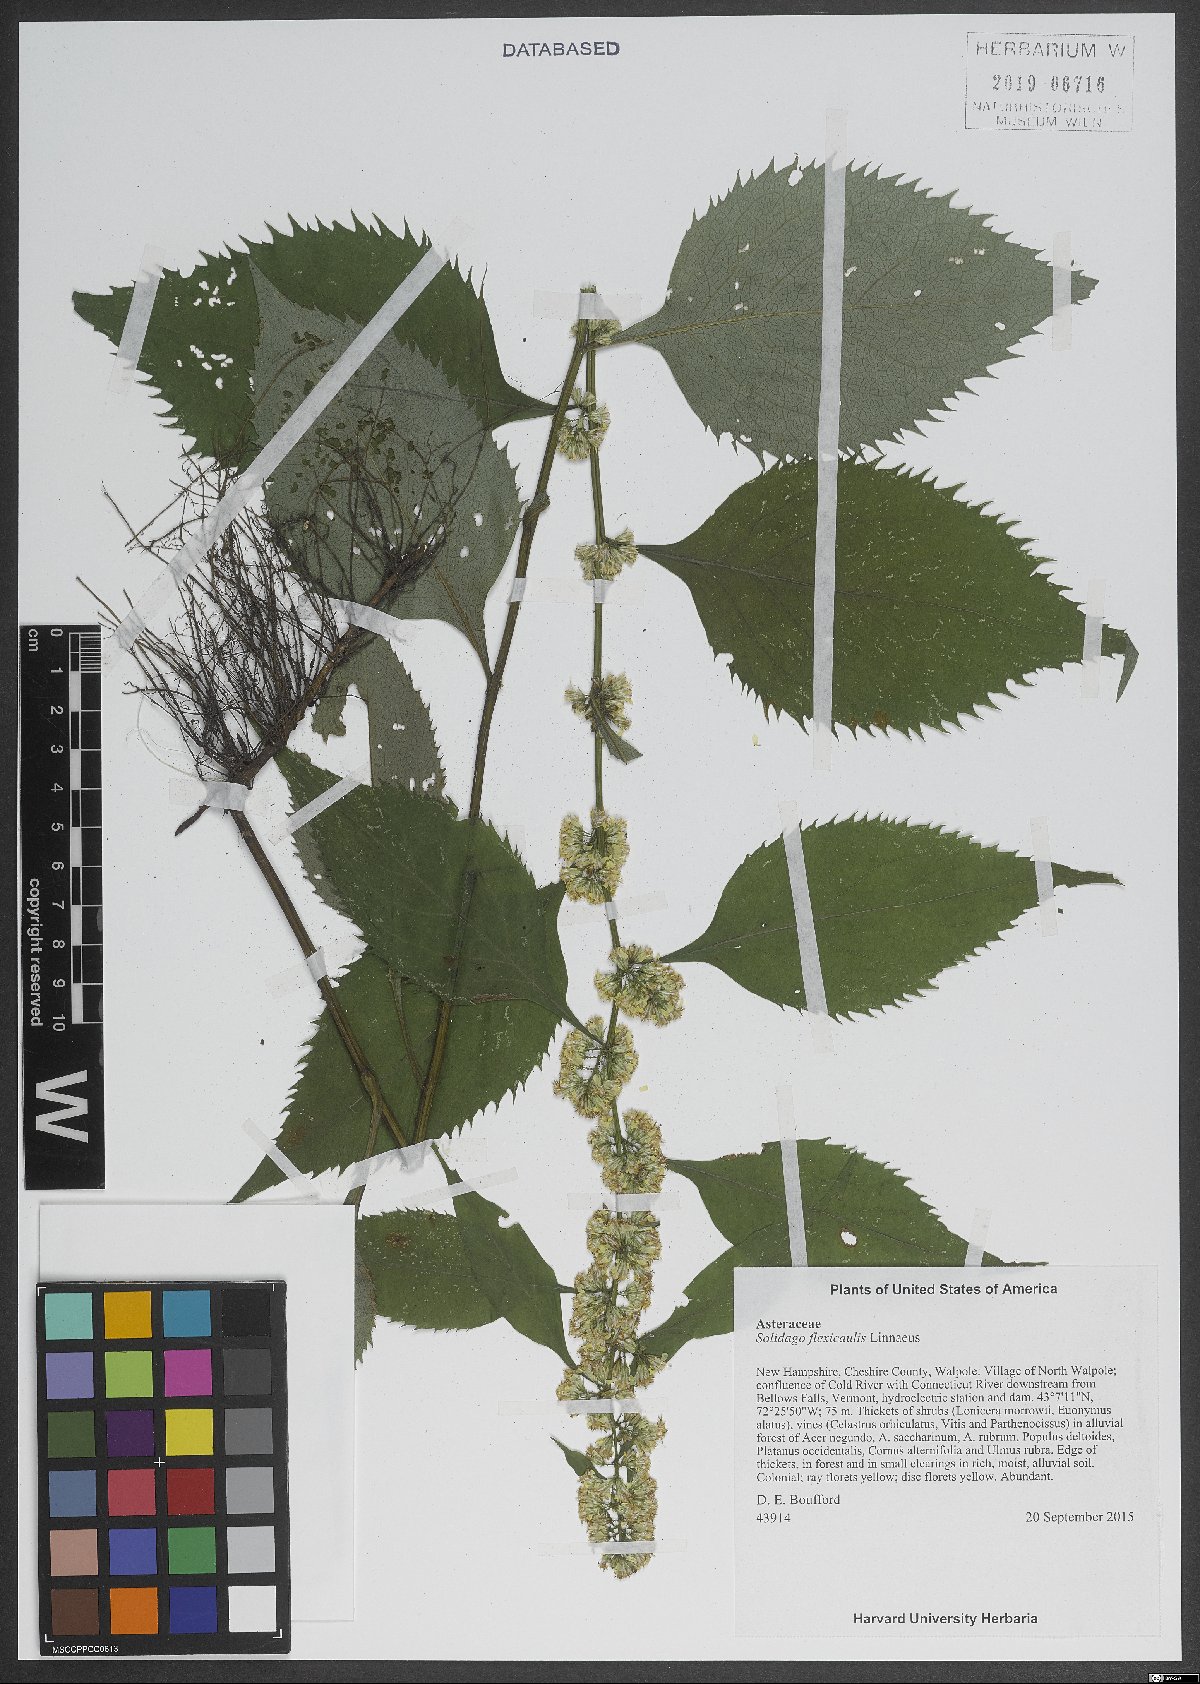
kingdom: Plantae
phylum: Tracheophyta
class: Magnoliopsida
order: Asterales
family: Asteraceae
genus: Solidago
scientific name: Solidago flexicaulis
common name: Zig-zag goldenrod
